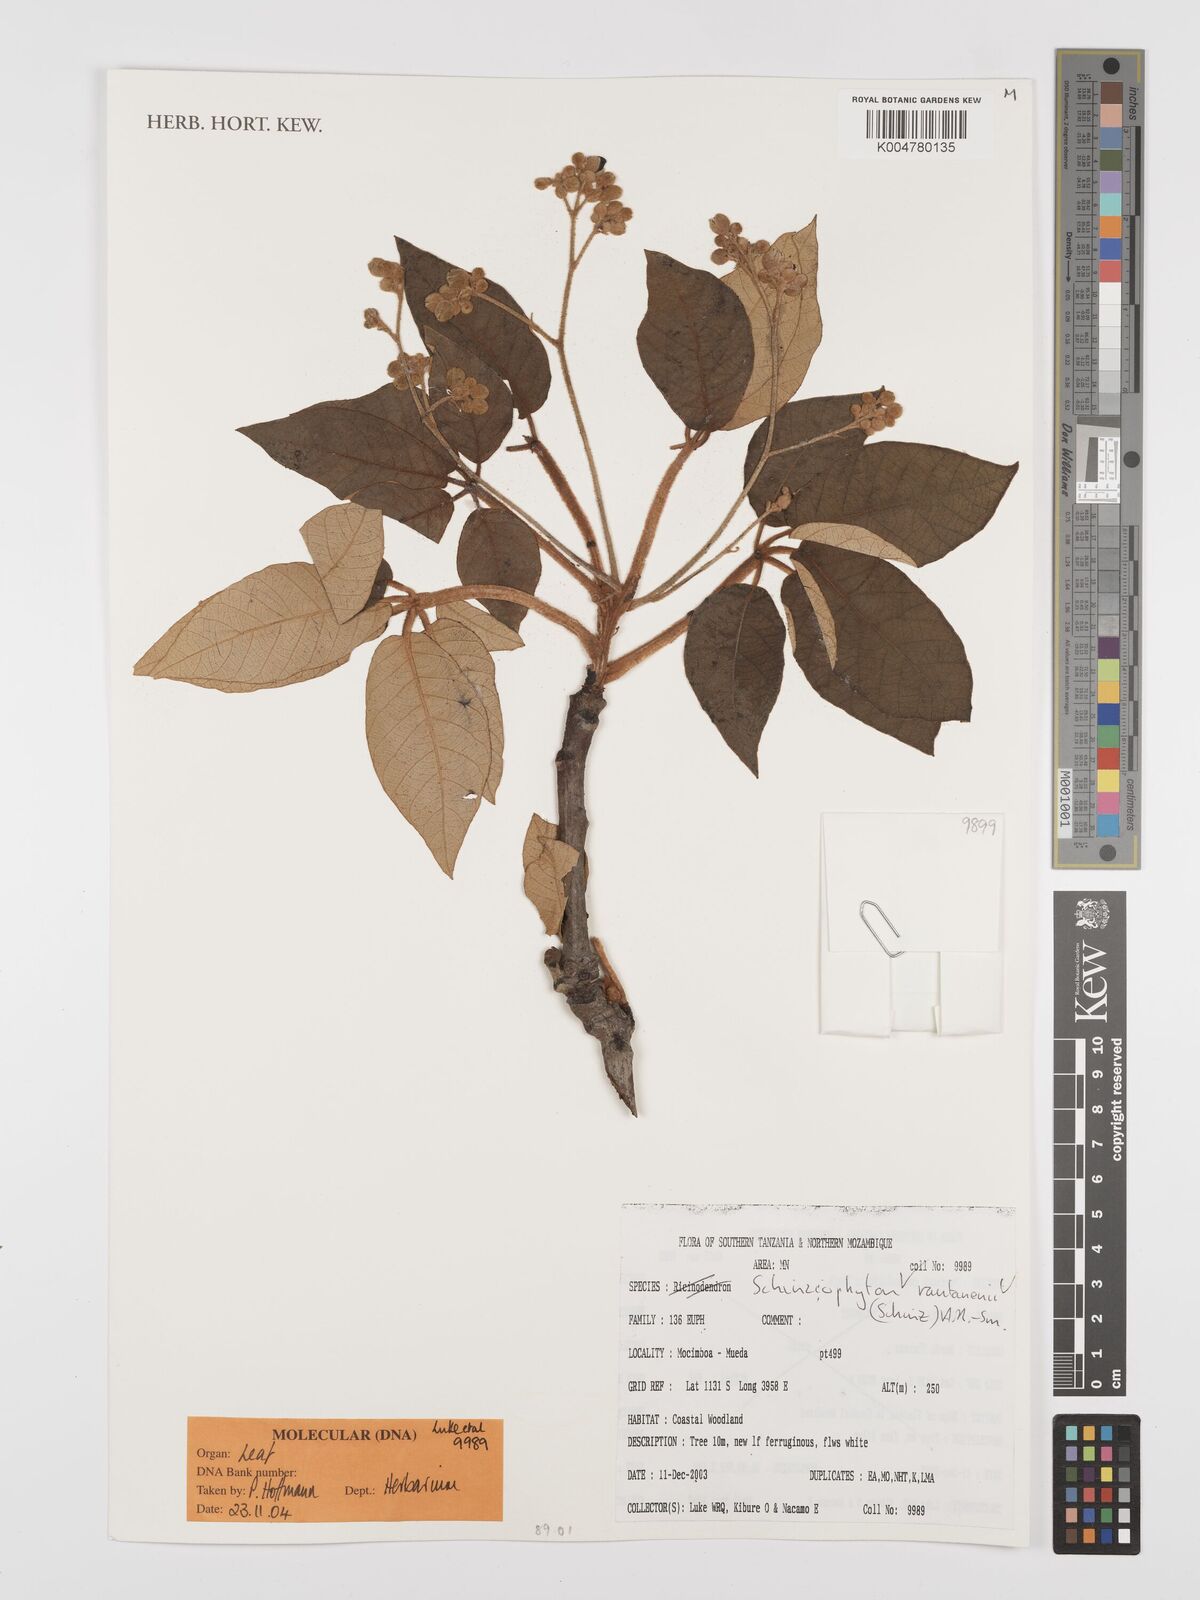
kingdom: Plantae
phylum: Tracheophyta
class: Magnoliopsida
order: Malpighiales
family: Euphorbiaceae
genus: Schinziophyton
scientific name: Schinziophyton rautanenii
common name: Manketti
